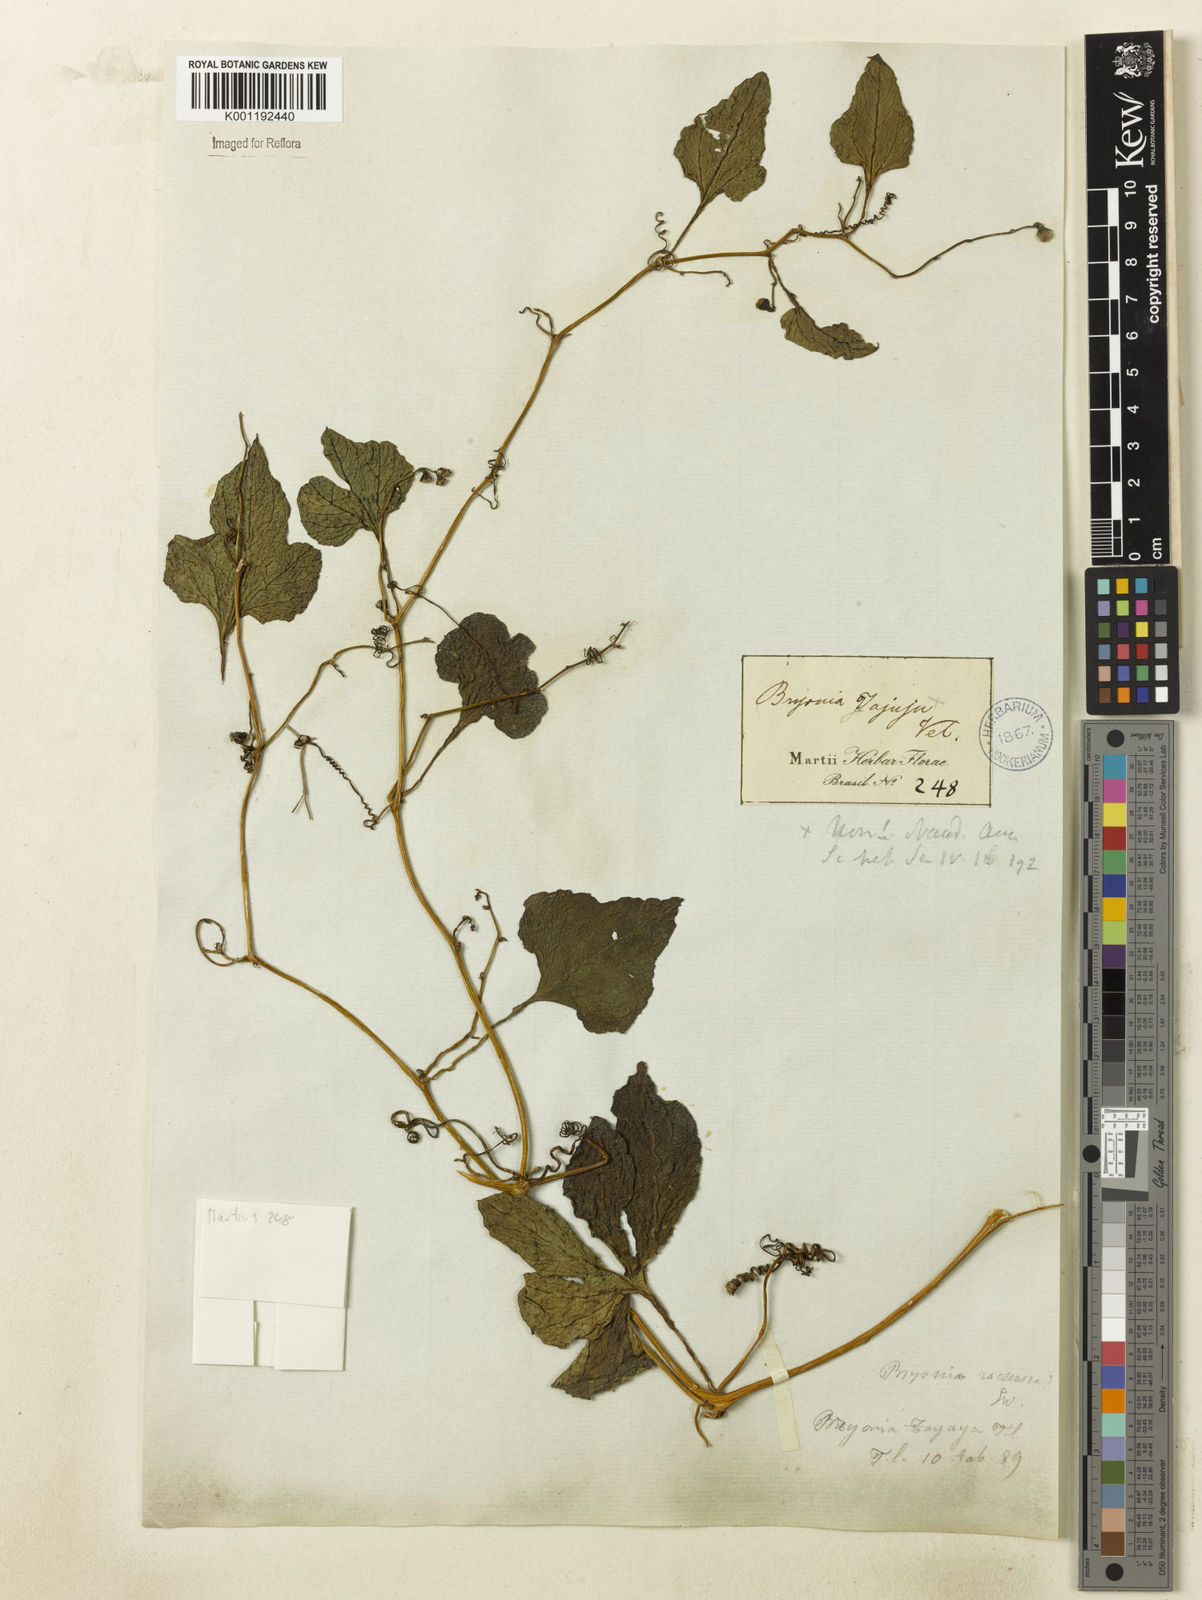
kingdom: Plantae
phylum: Tracheophyta
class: Magnoliopsida
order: Cucurbitales
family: Cucurbitaceae
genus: Cayaponia
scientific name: Cayaponia tayuya
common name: Tayuya
